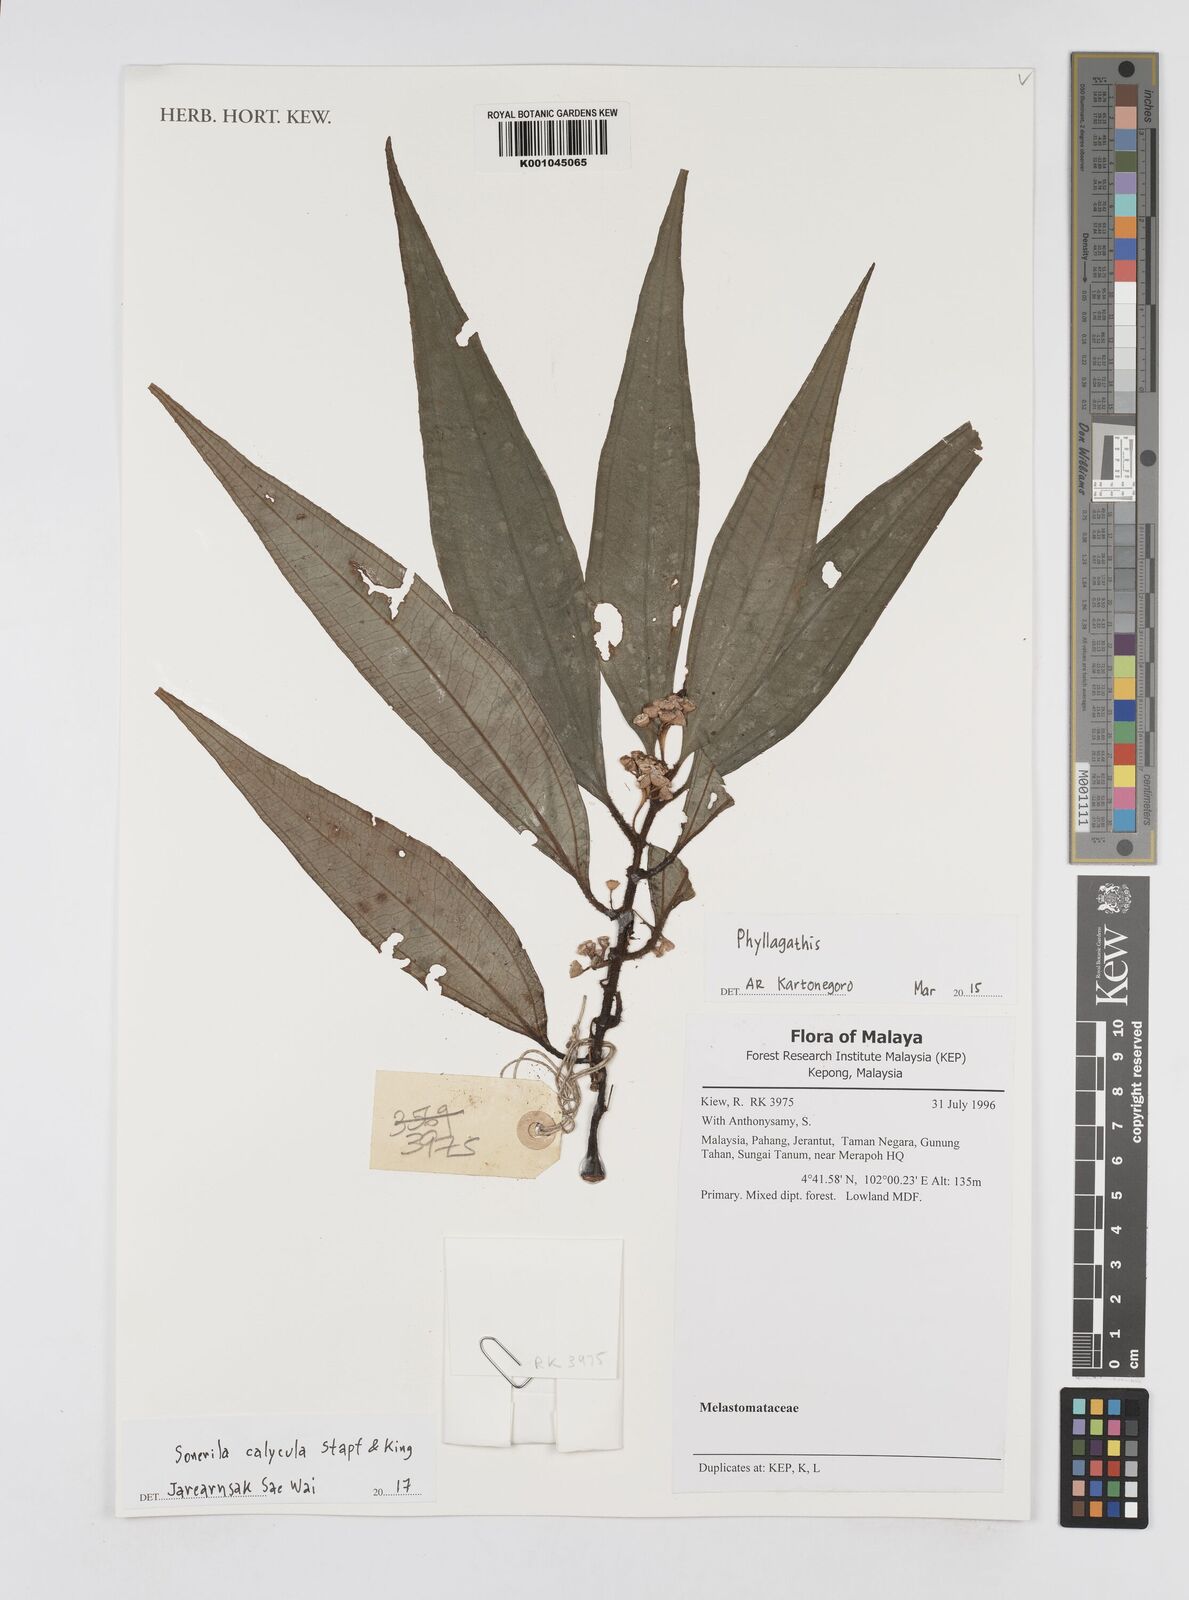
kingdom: Plantae
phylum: Tracheophyta
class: Magnoliopsida
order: Myrtales
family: Melastomataceae
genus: Sonerila
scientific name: Sonerila calycula
